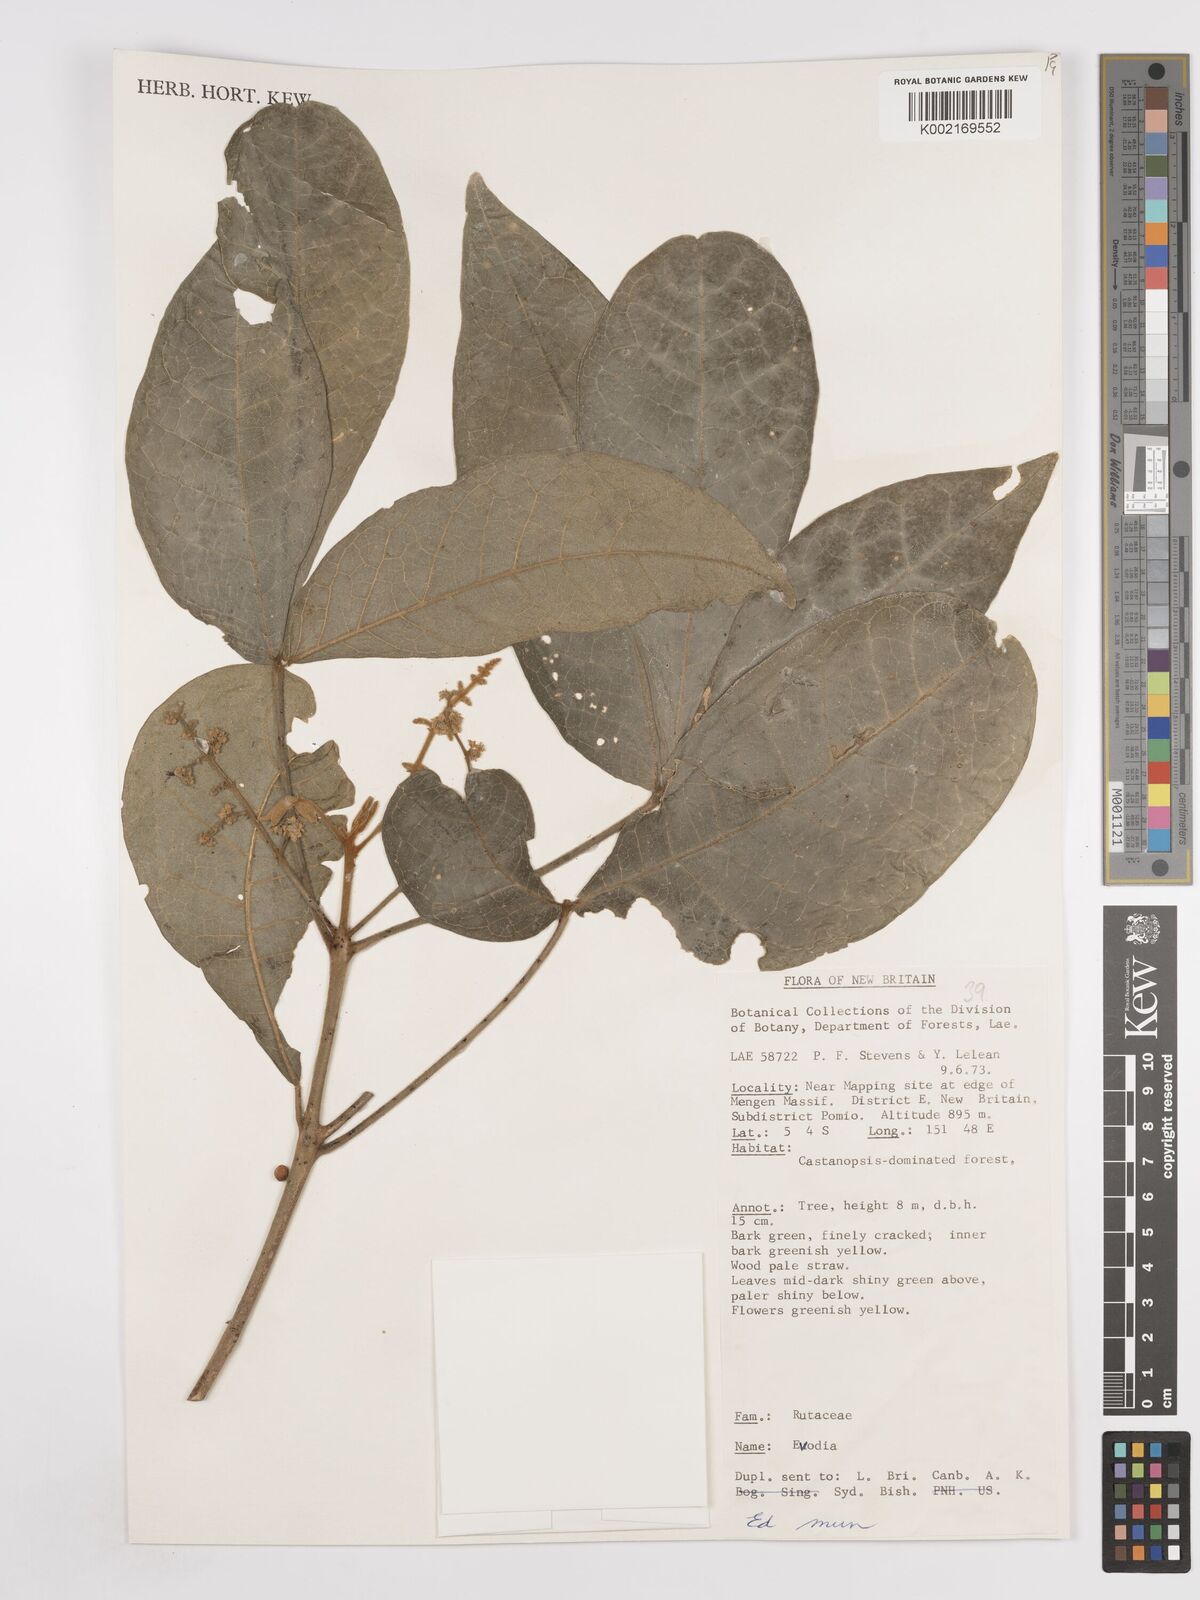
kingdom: Plantae
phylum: Tracheophyta
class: Magnoliopsida
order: Sapindales
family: Rutaceae
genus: Euodia
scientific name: Euodia
